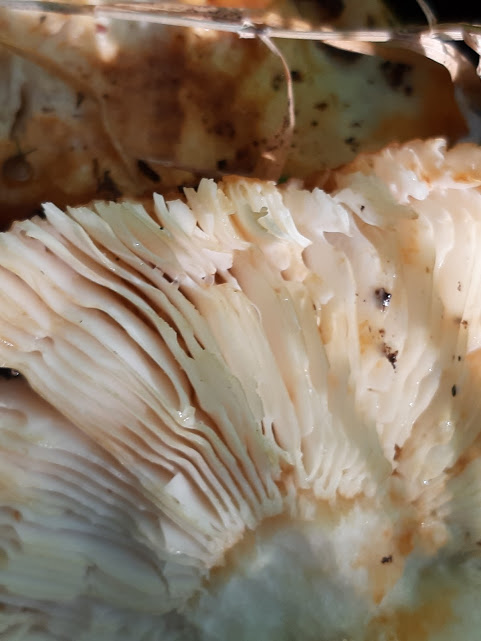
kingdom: Fungi
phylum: Basidiomycota
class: Agaricomycetes
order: Russulales
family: Russulaceae
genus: Russula
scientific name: Russula foetens
